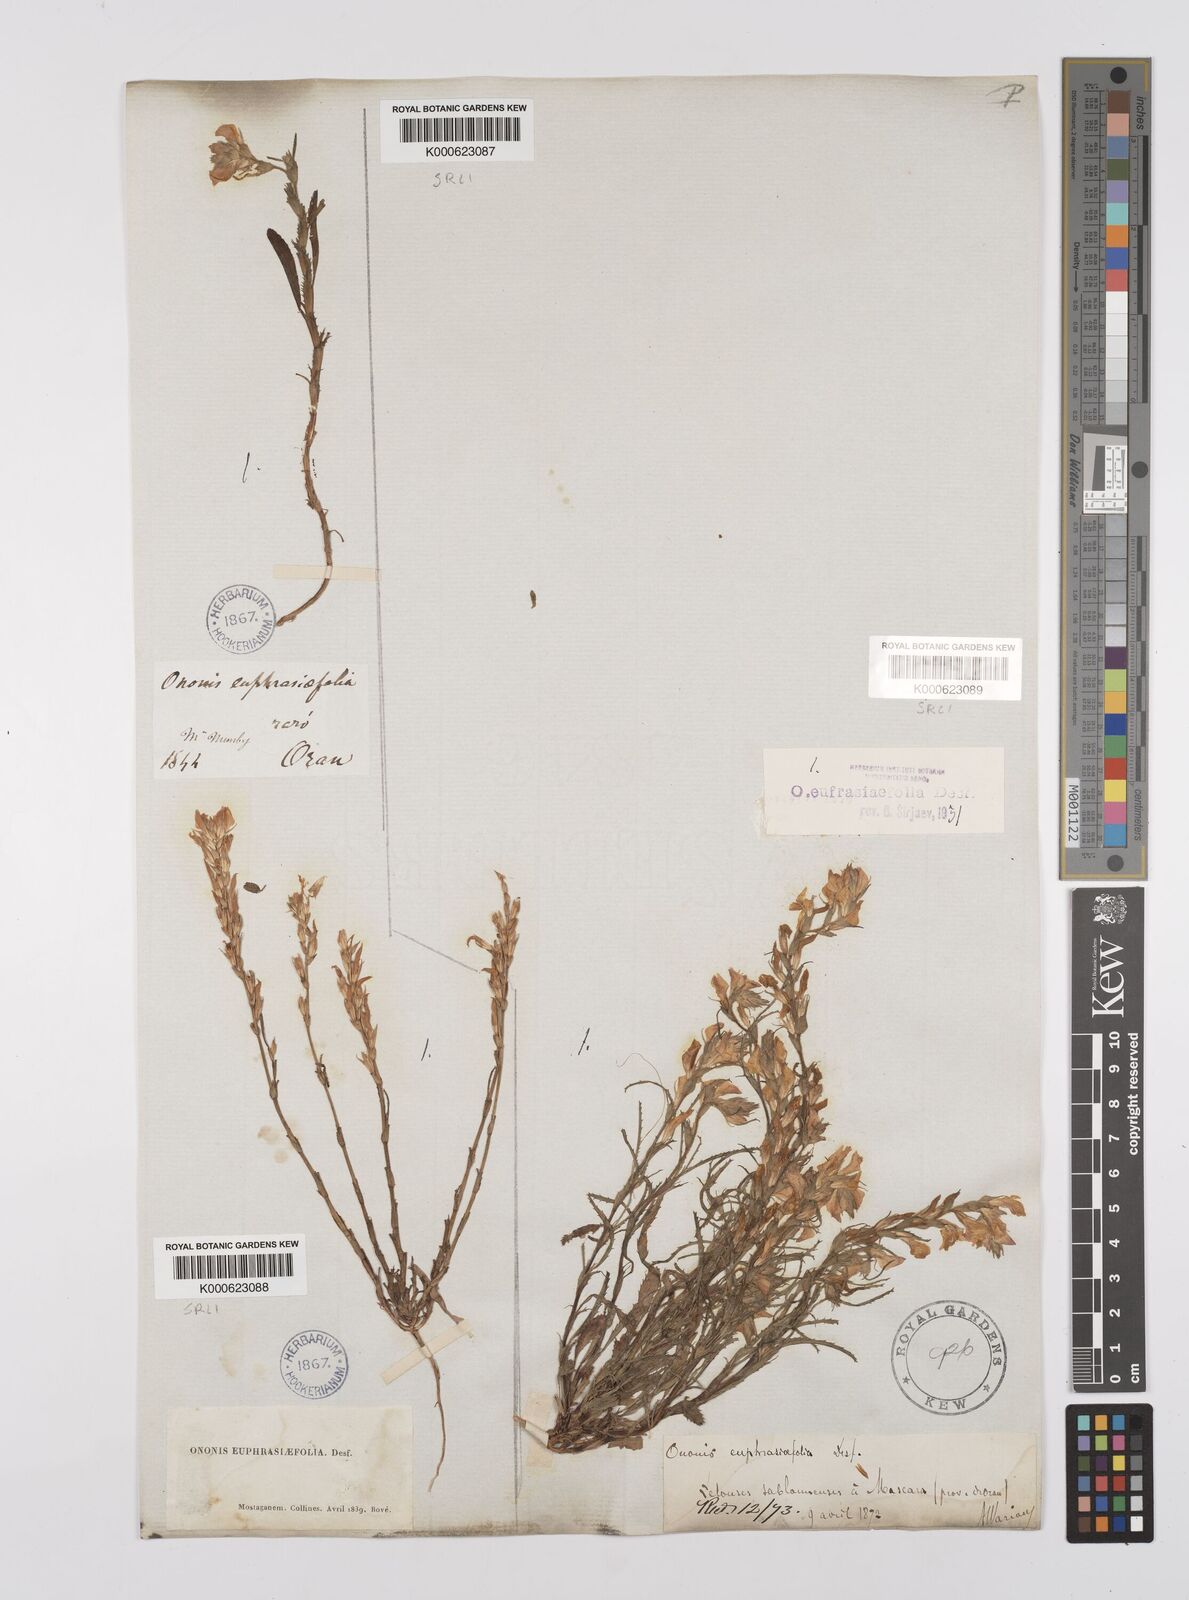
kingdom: Plantae
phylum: Tracheophyta
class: Magnoliopsida
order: Fabales
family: Fabaceae
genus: Ononis
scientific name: Ononis
